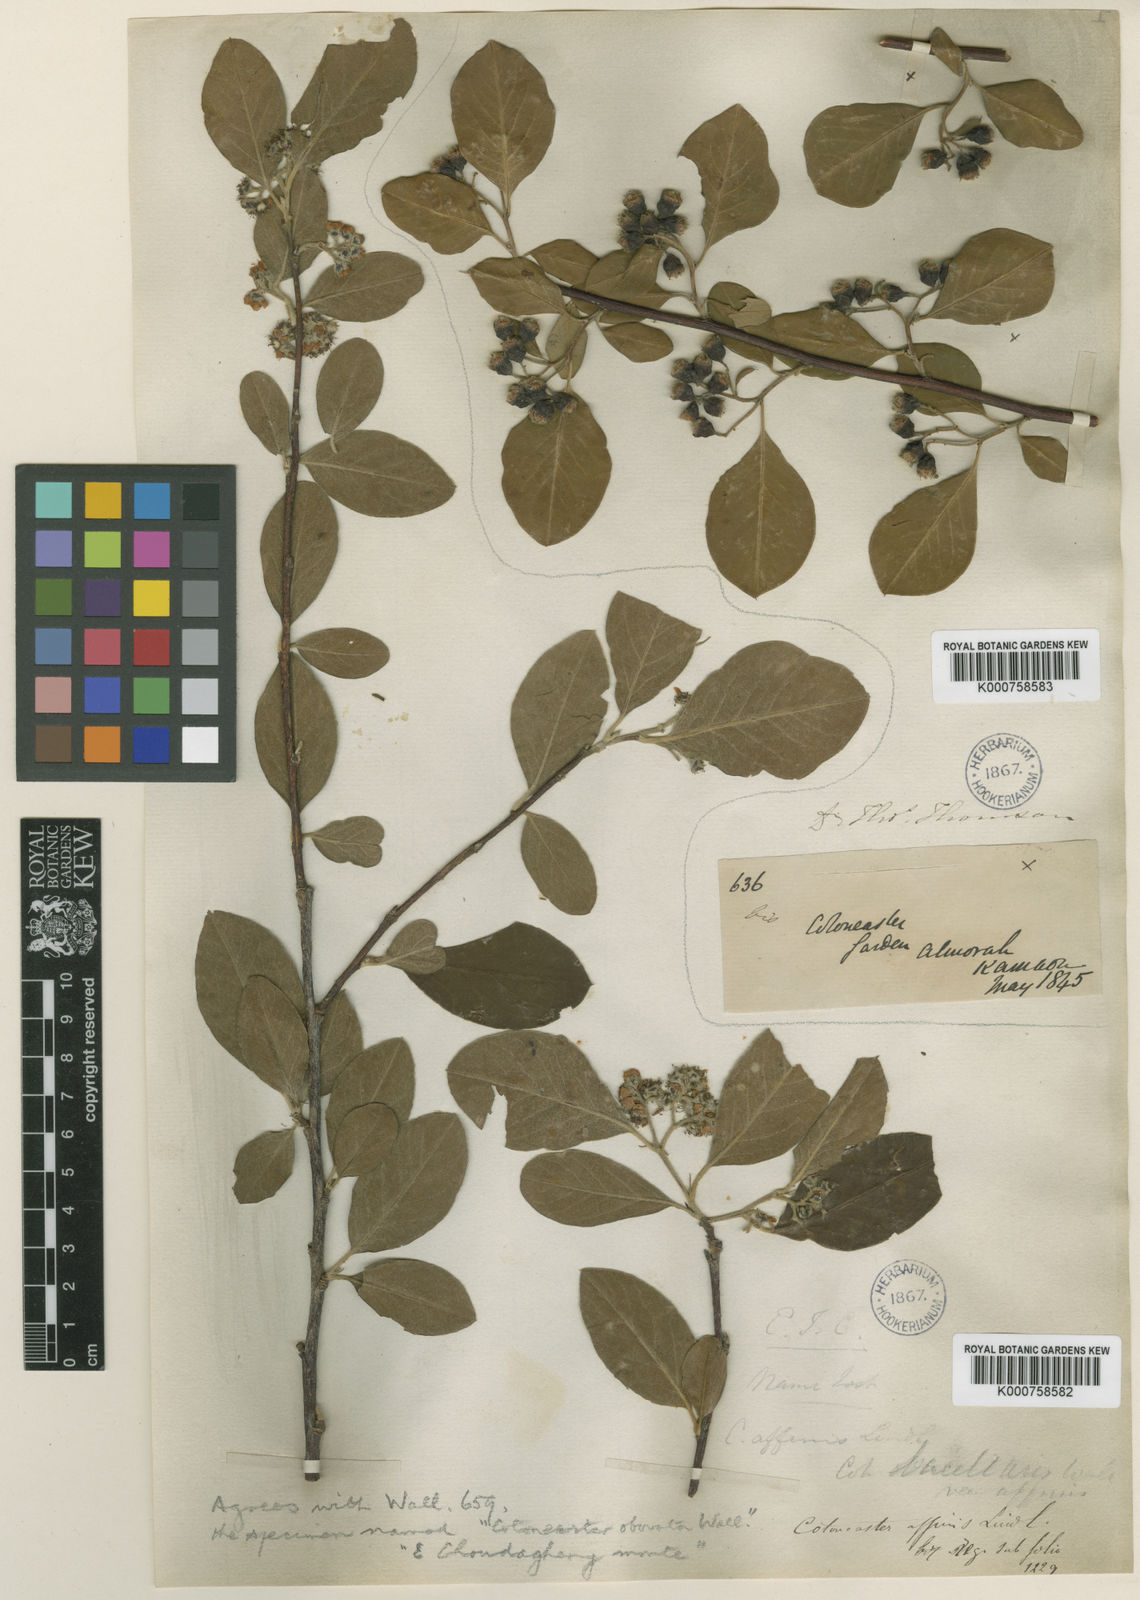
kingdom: Plantae
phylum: Tracheophyta
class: Magnoliopsida
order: Rosales
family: Rosaceae
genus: Cotoneaster
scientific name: Cotoneaster obovatus
